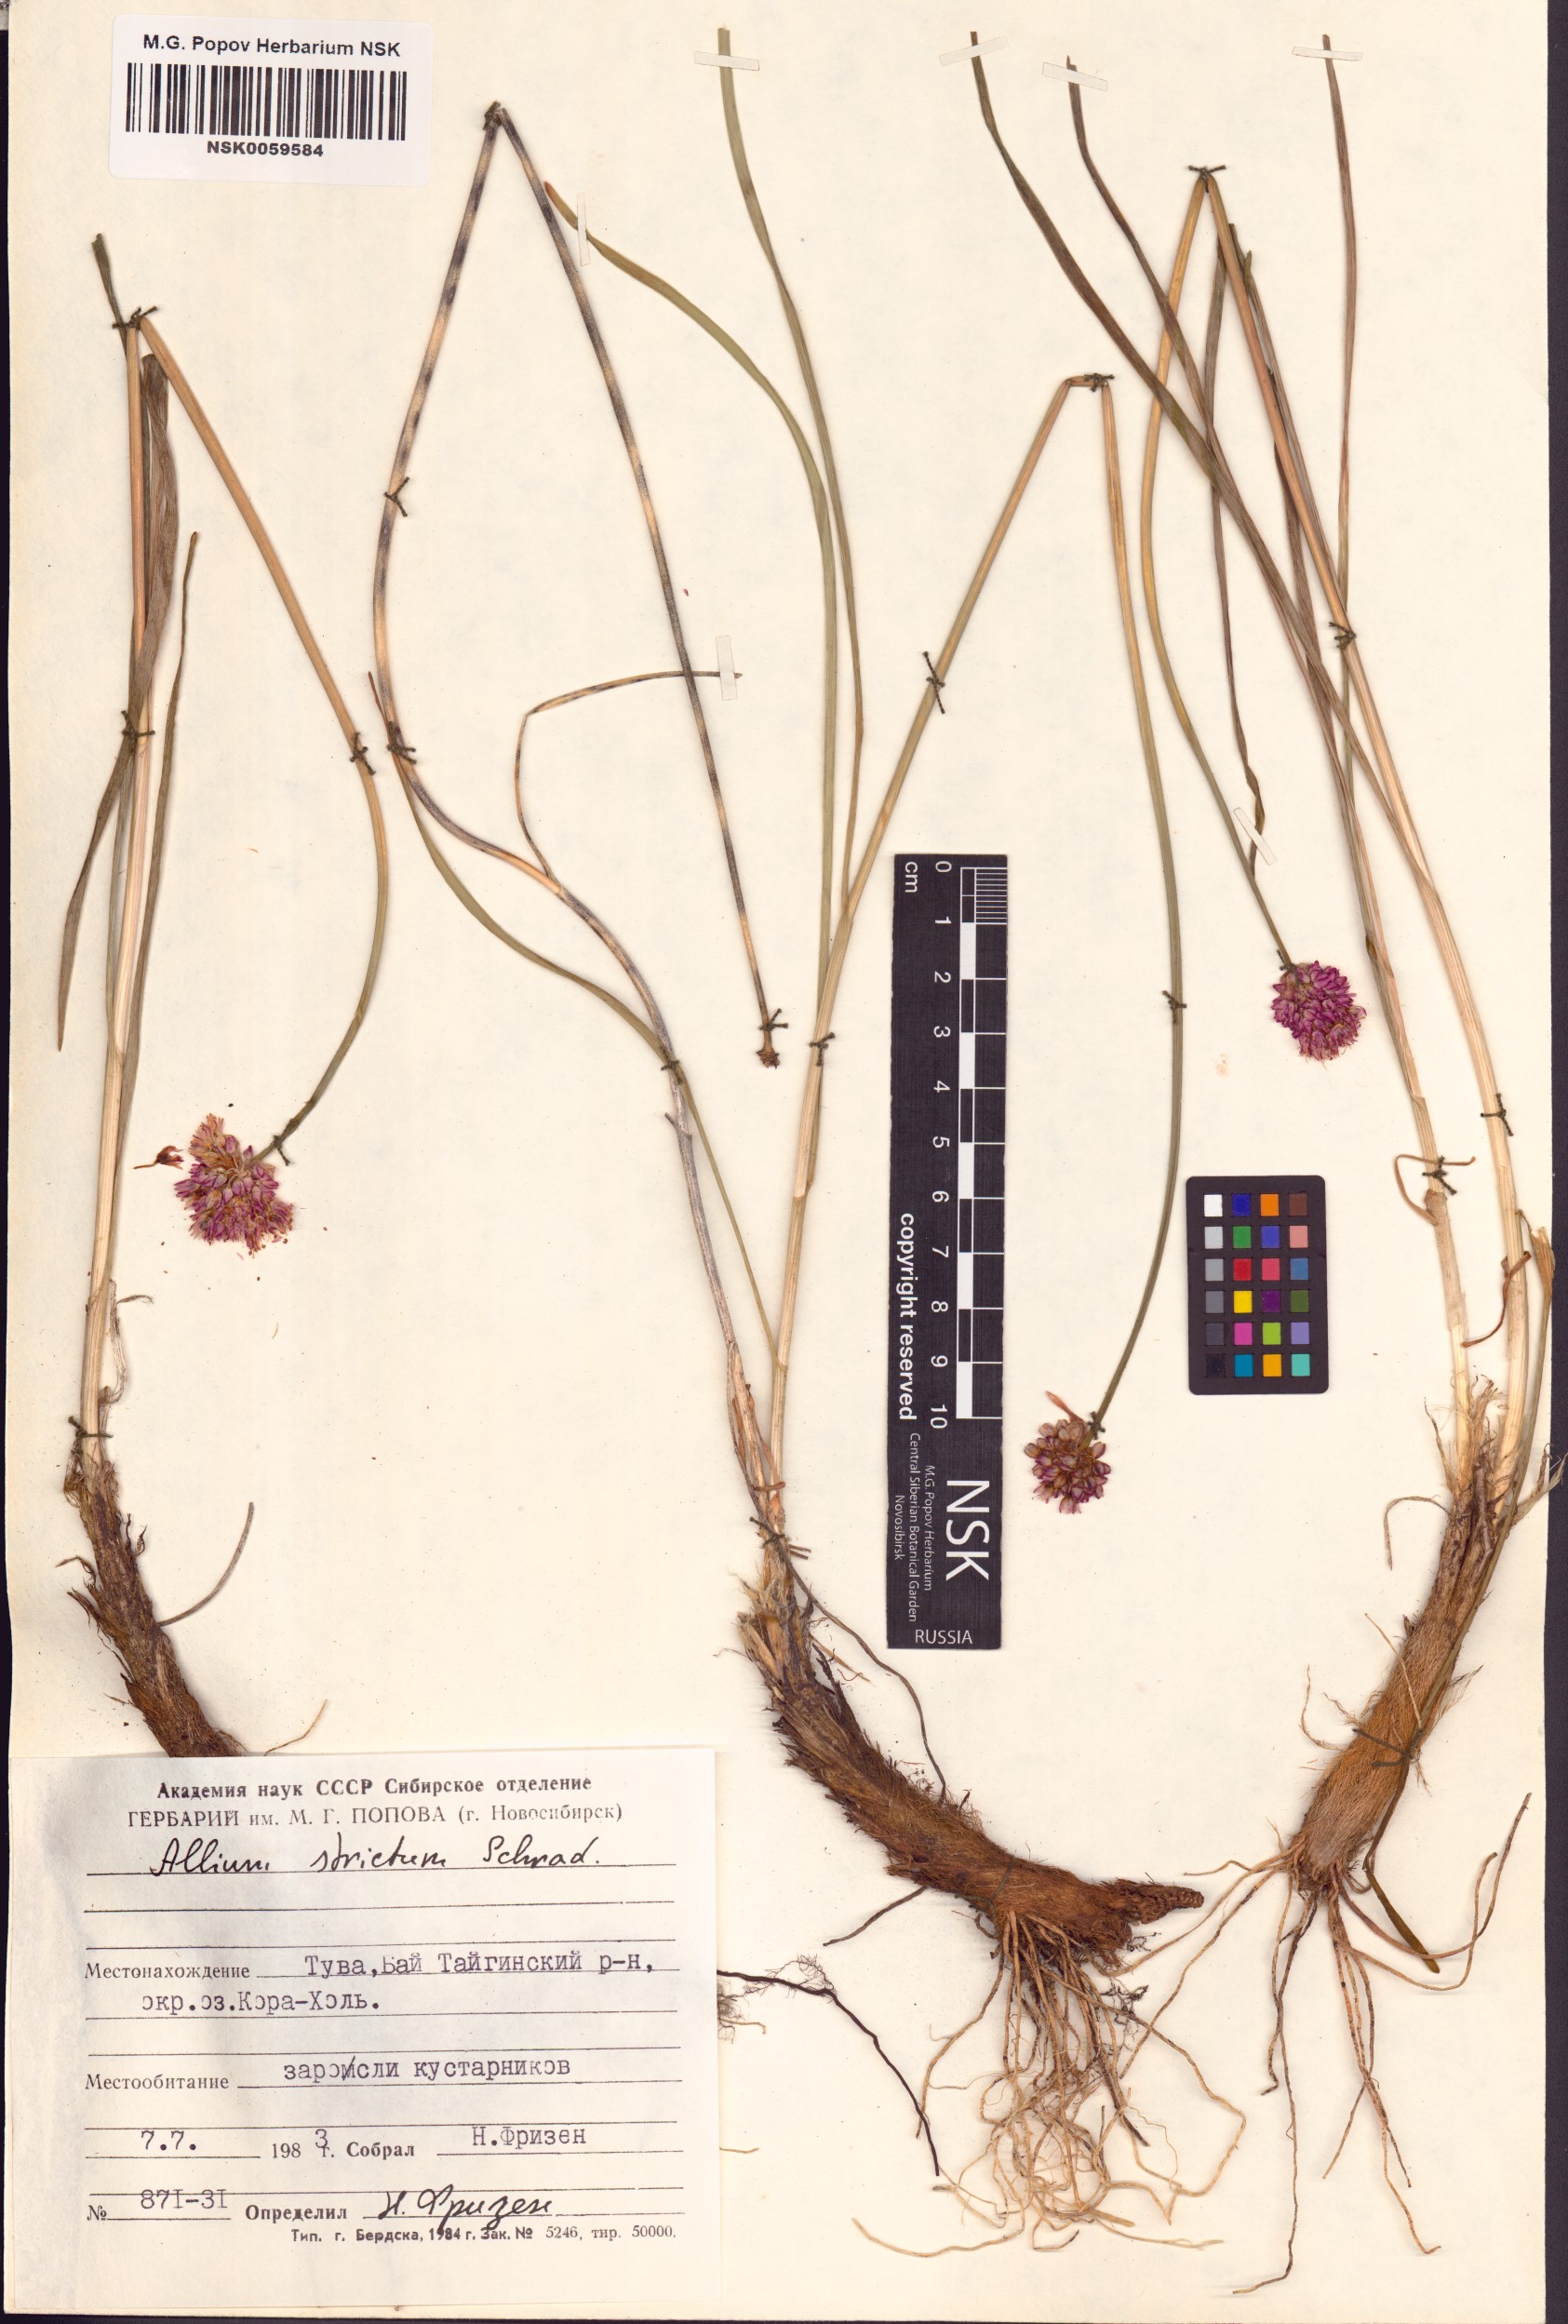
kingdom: Plantae
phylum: Tracheophyta
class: Liliopsida
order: Asparagales
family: Amaryllidaceae
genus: Allium
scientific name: Allium strictum
